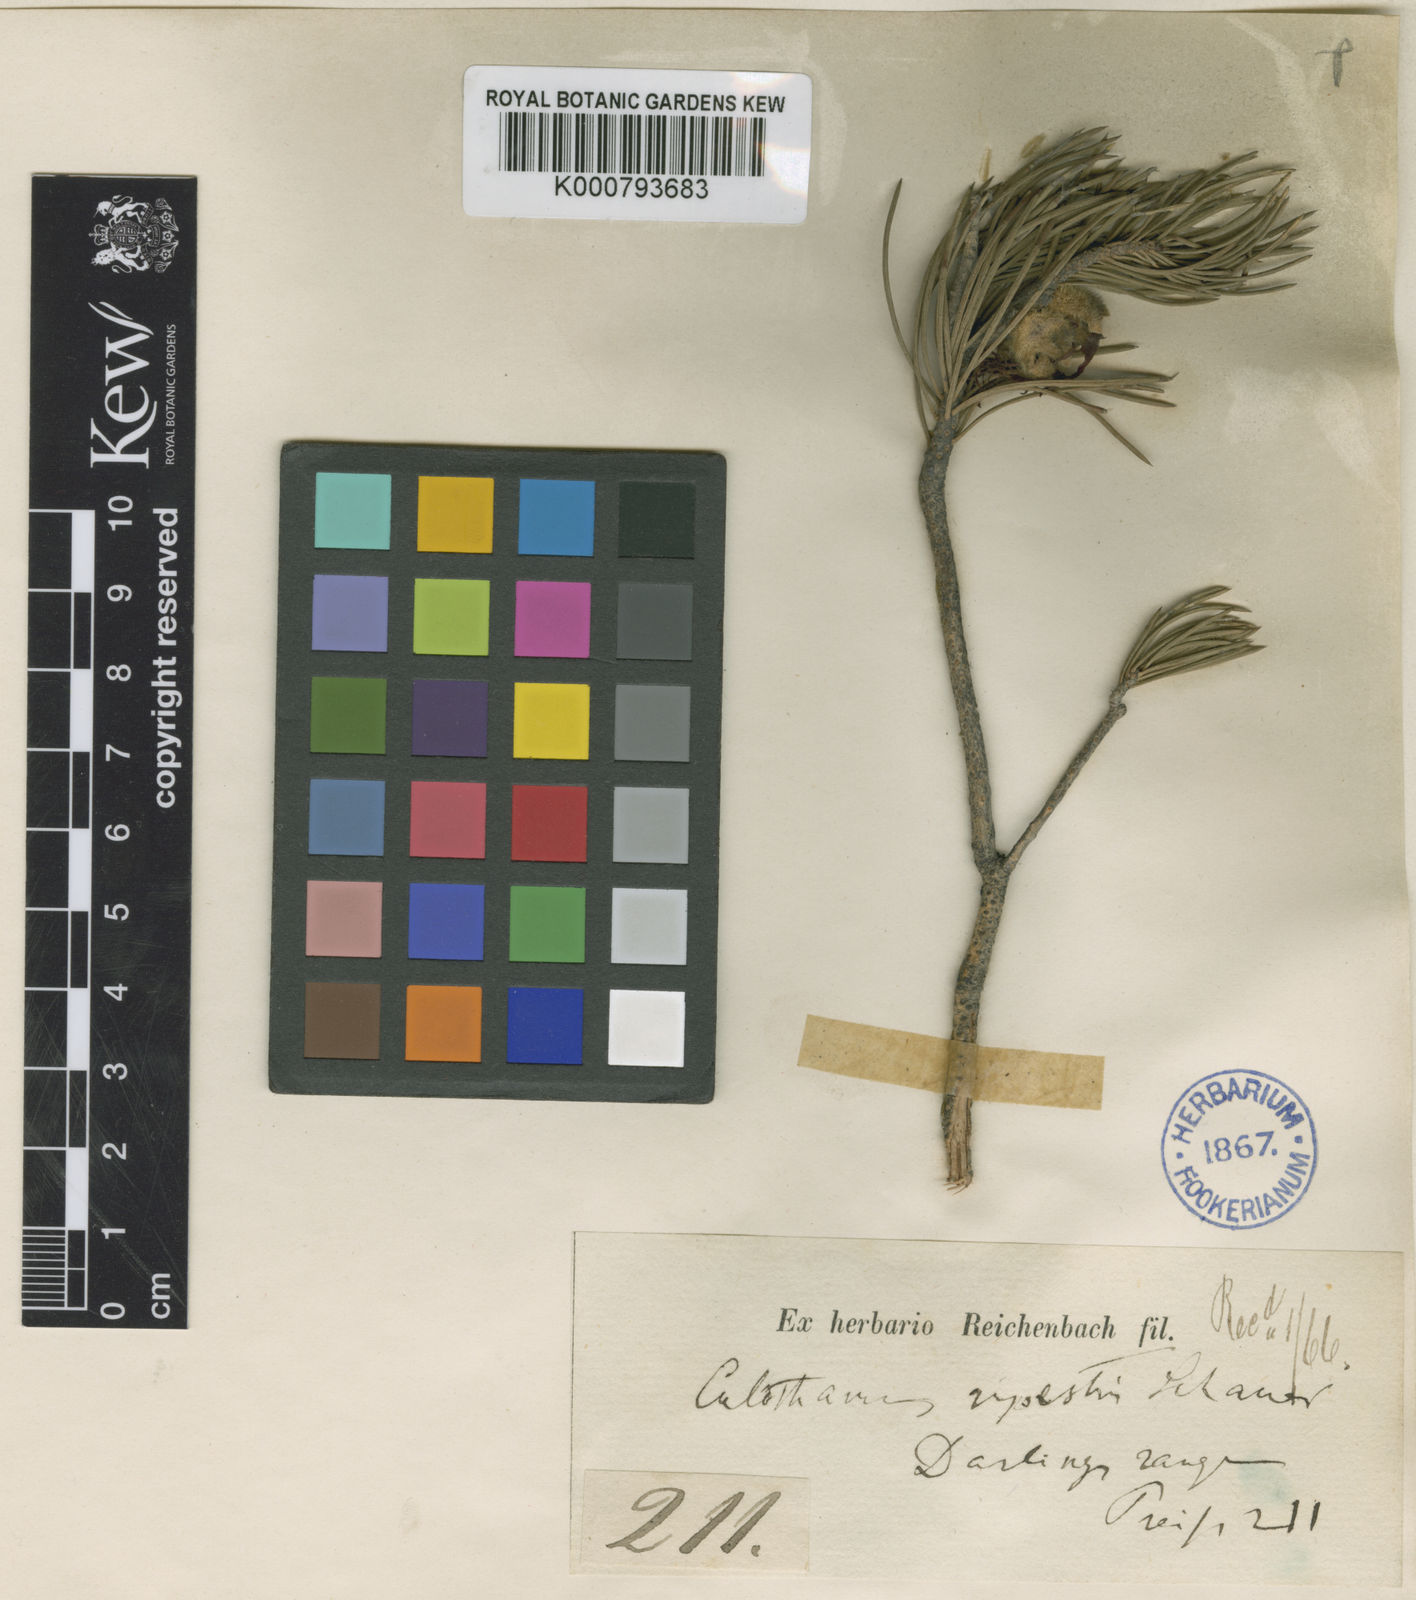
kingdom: Plantae
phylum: Tracheophyta
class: Magnoliopsida
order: Myrtales
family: Myrtaceae
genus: Melaleuca
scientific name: Melaleuca rupestris
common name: Cliff net-bush
